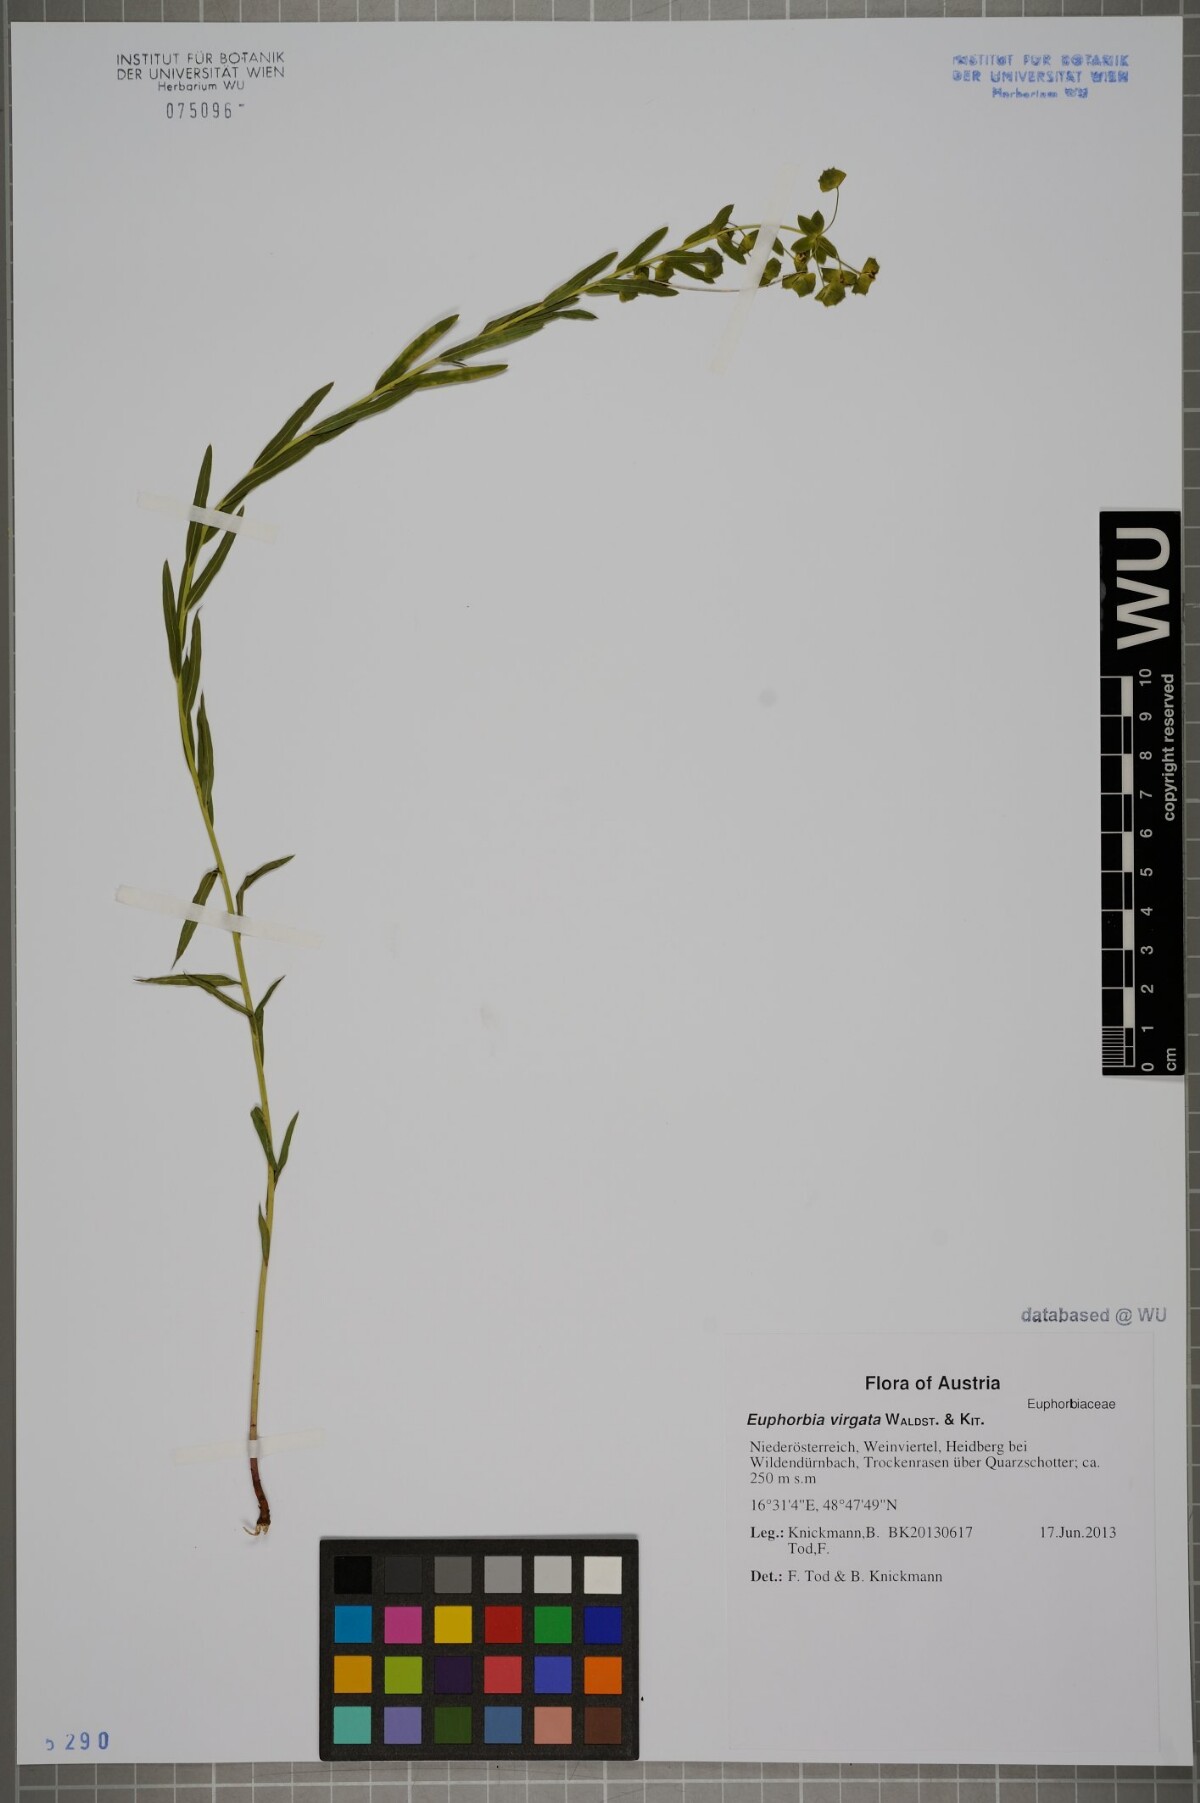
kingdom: Plantae
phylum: Tracheophyta
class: Magnoliopsida
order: Malpighiales
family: Euphorbiaceae
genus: Euphorbia
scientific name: Euphorbia virgata
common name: Leafy spurge
